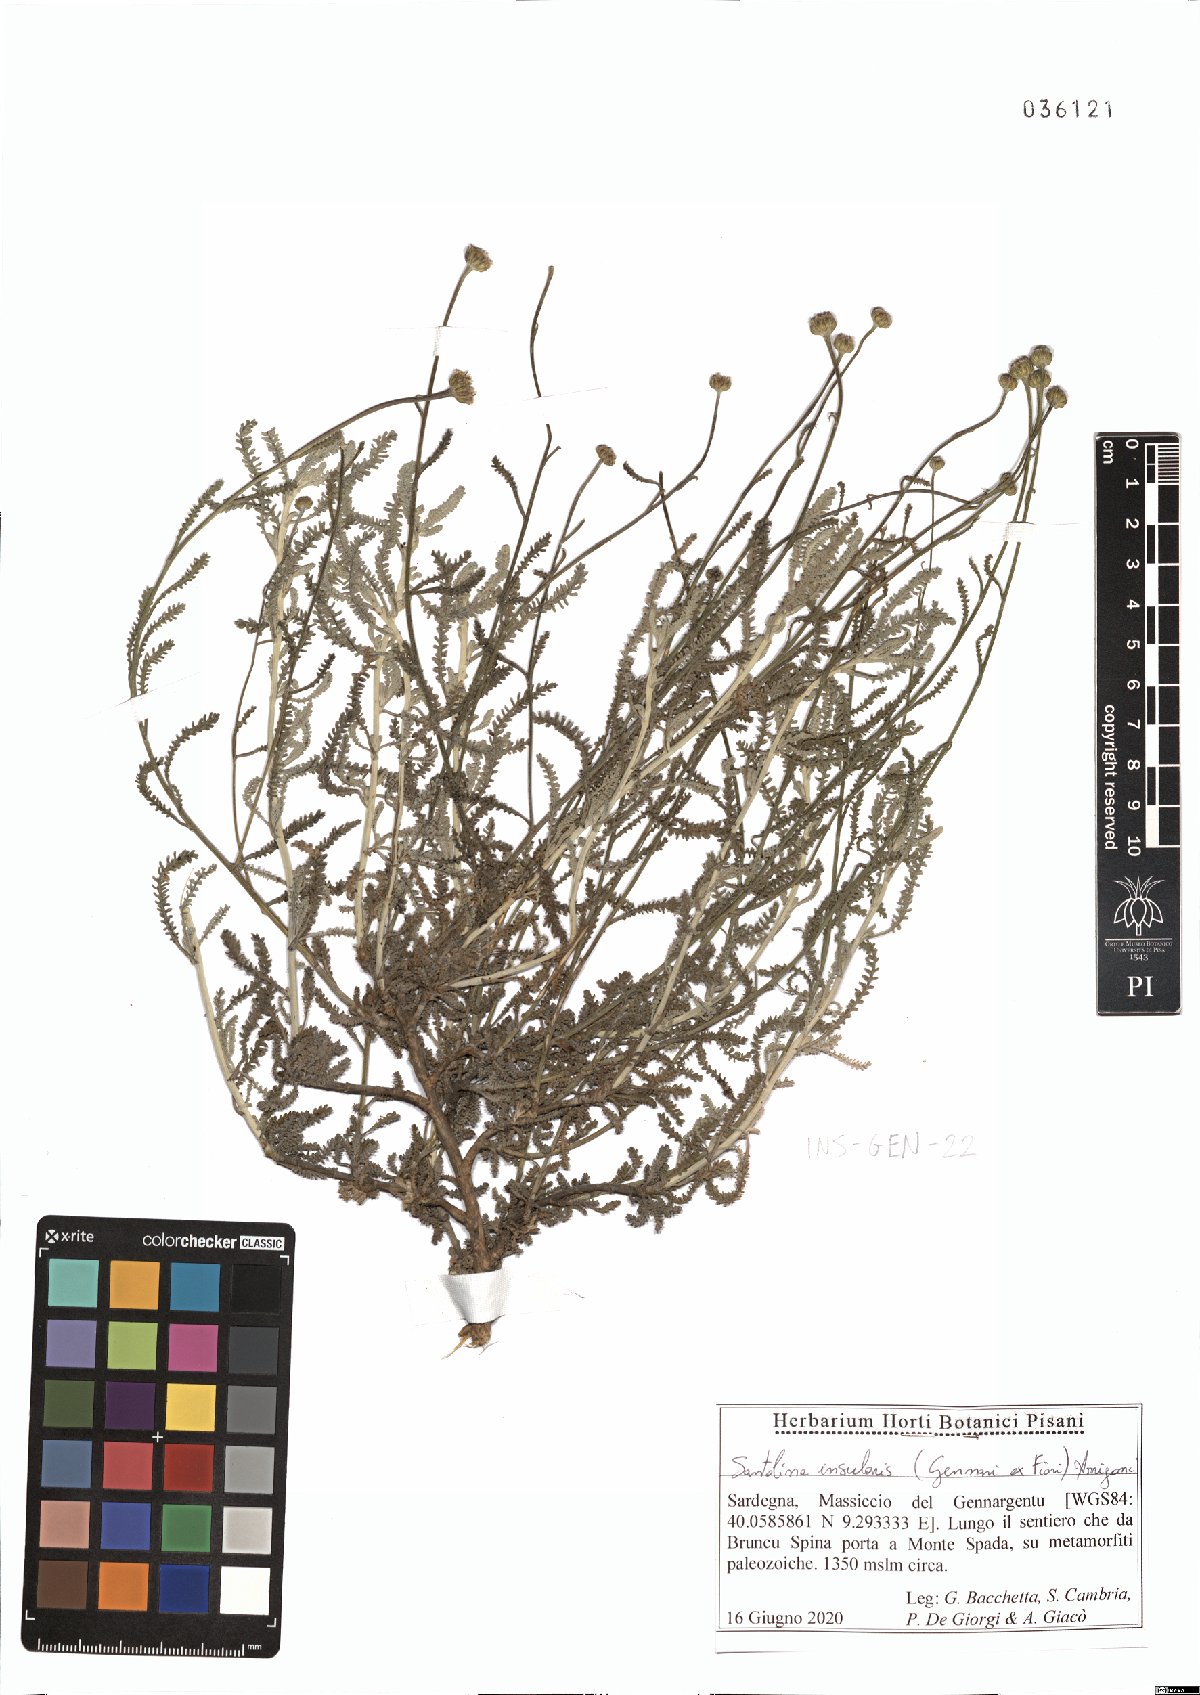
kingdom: Plantae
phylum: Tracheophyta
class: Magnoliopsida
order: Asterales
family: Asteraceae
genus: Santolina
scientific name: Santolina insularis
